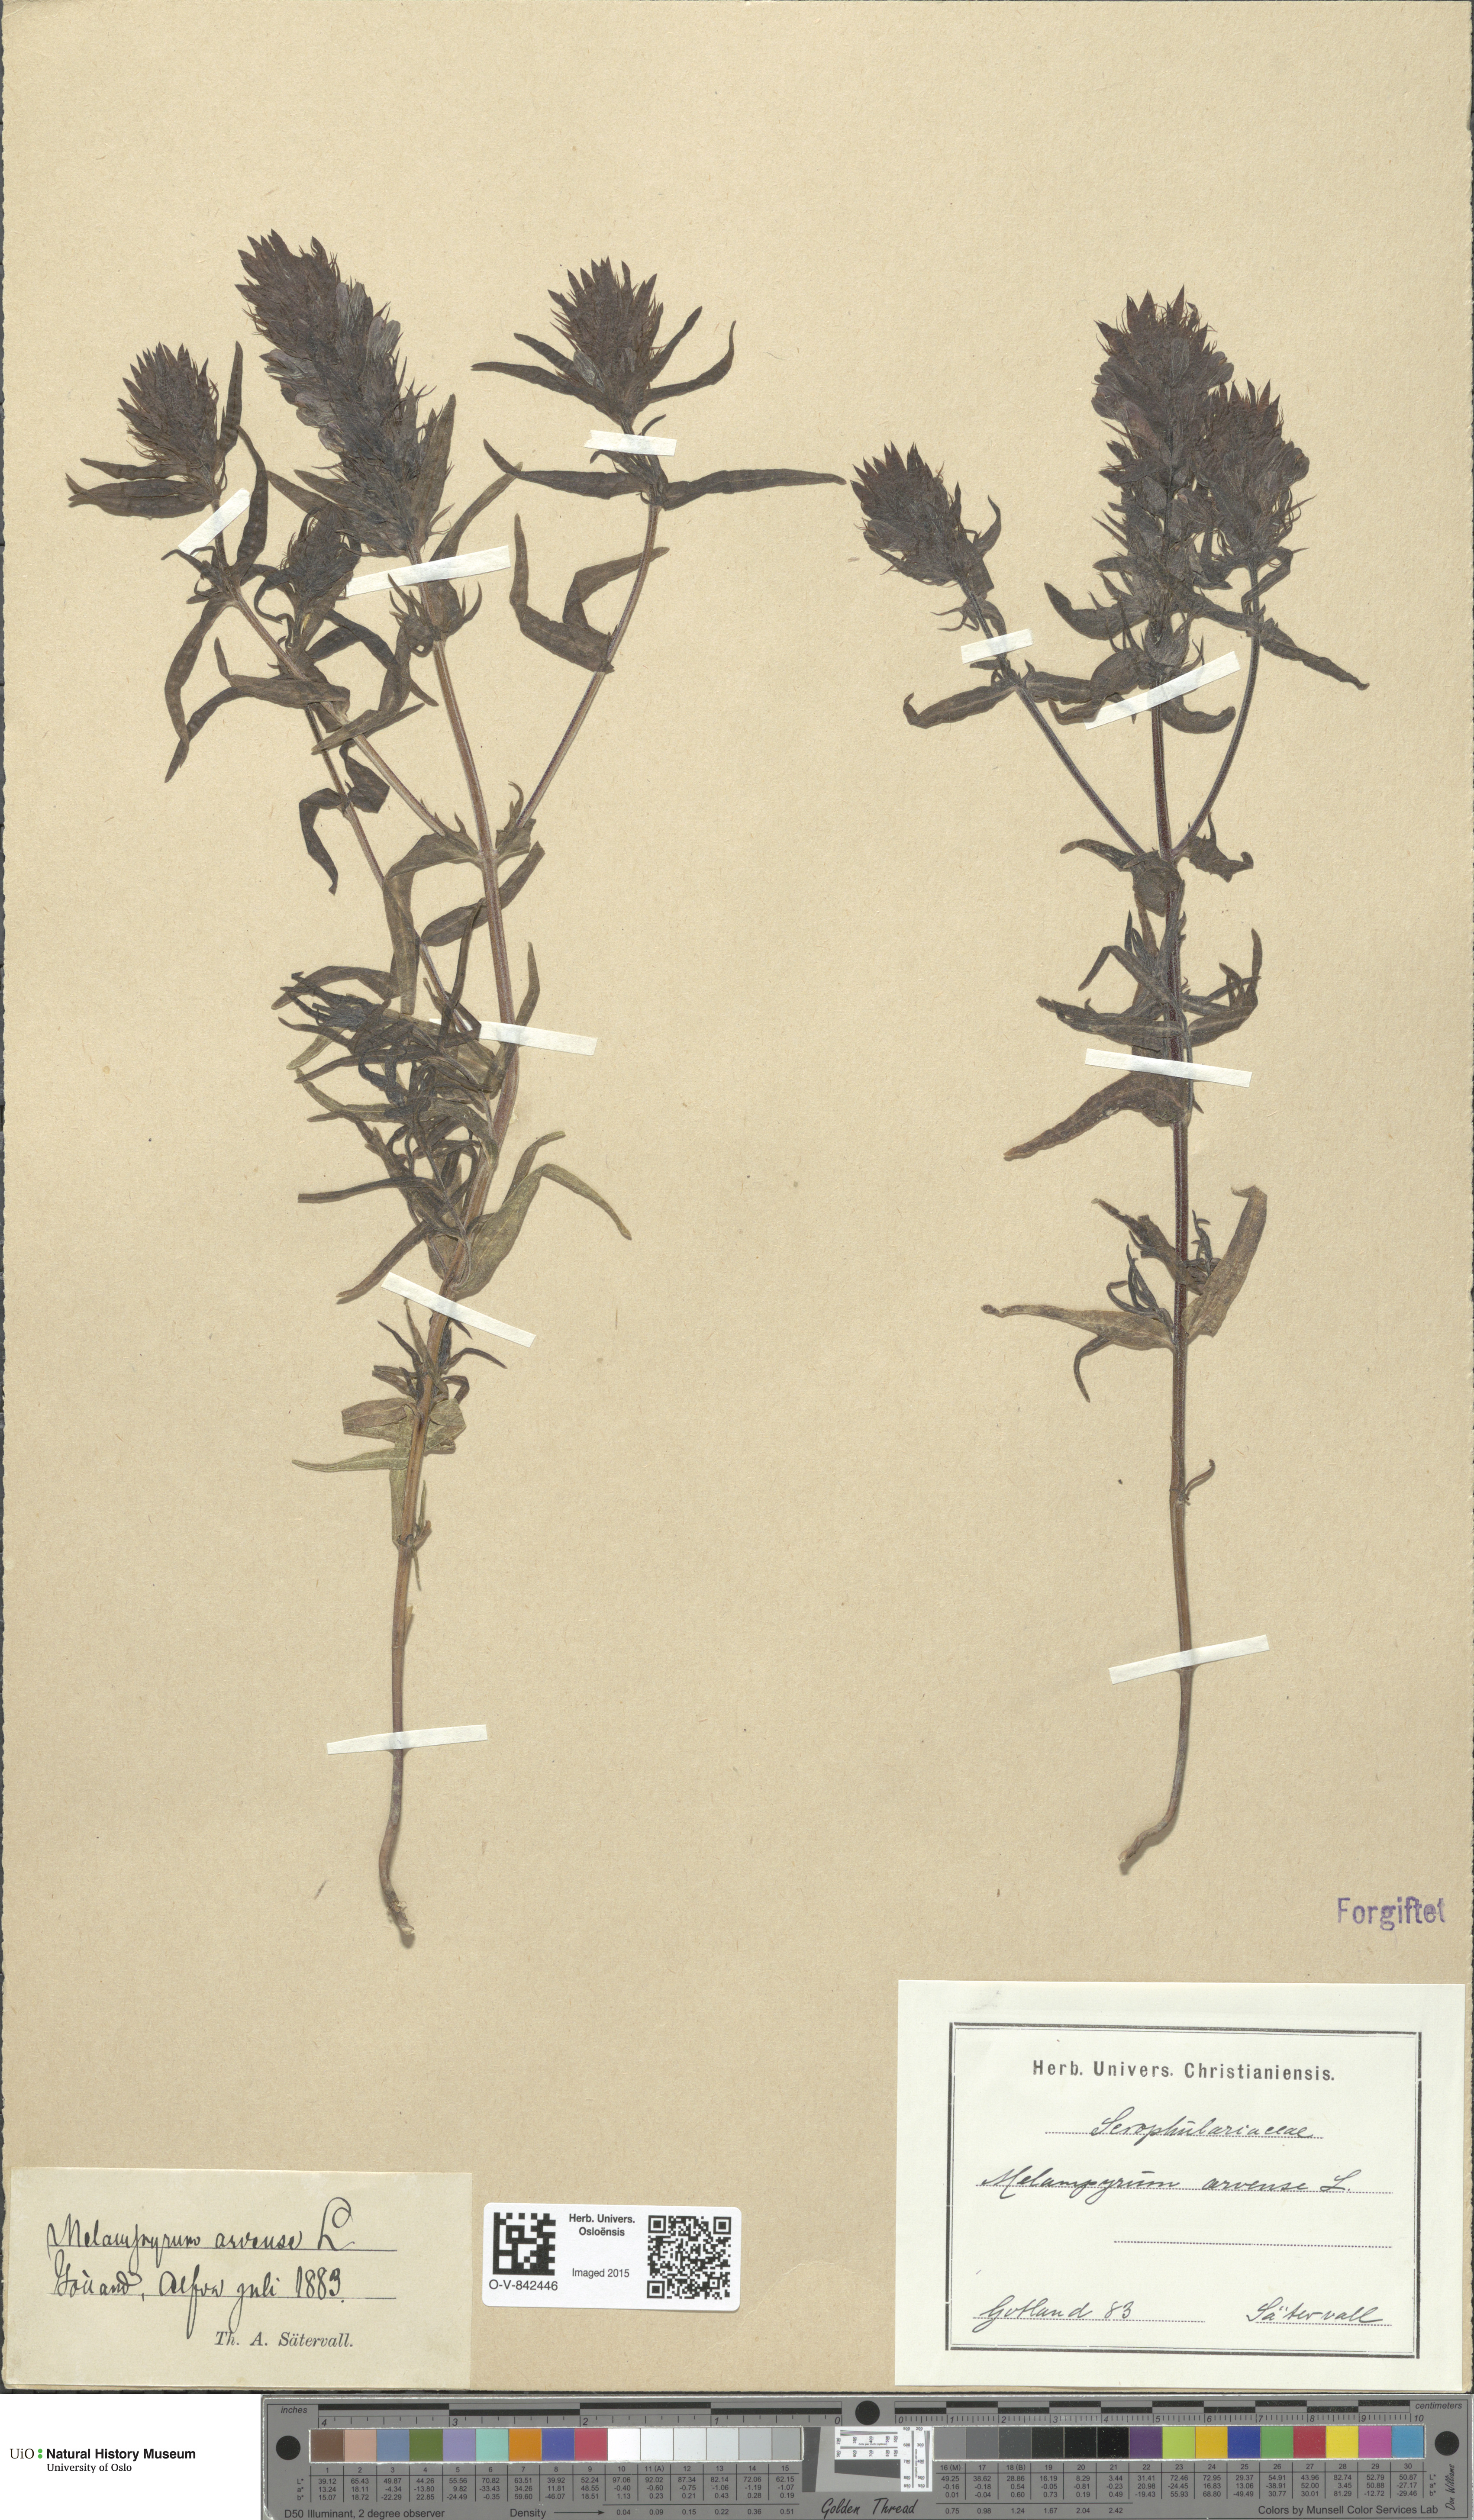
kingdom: Plantae
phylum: Tracheophyta
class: Magnoliopsida
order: Lamiales
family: Orobanchaceae
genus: Melampyrum
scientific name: Melampyrum arvense
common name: Field cow-wheat
